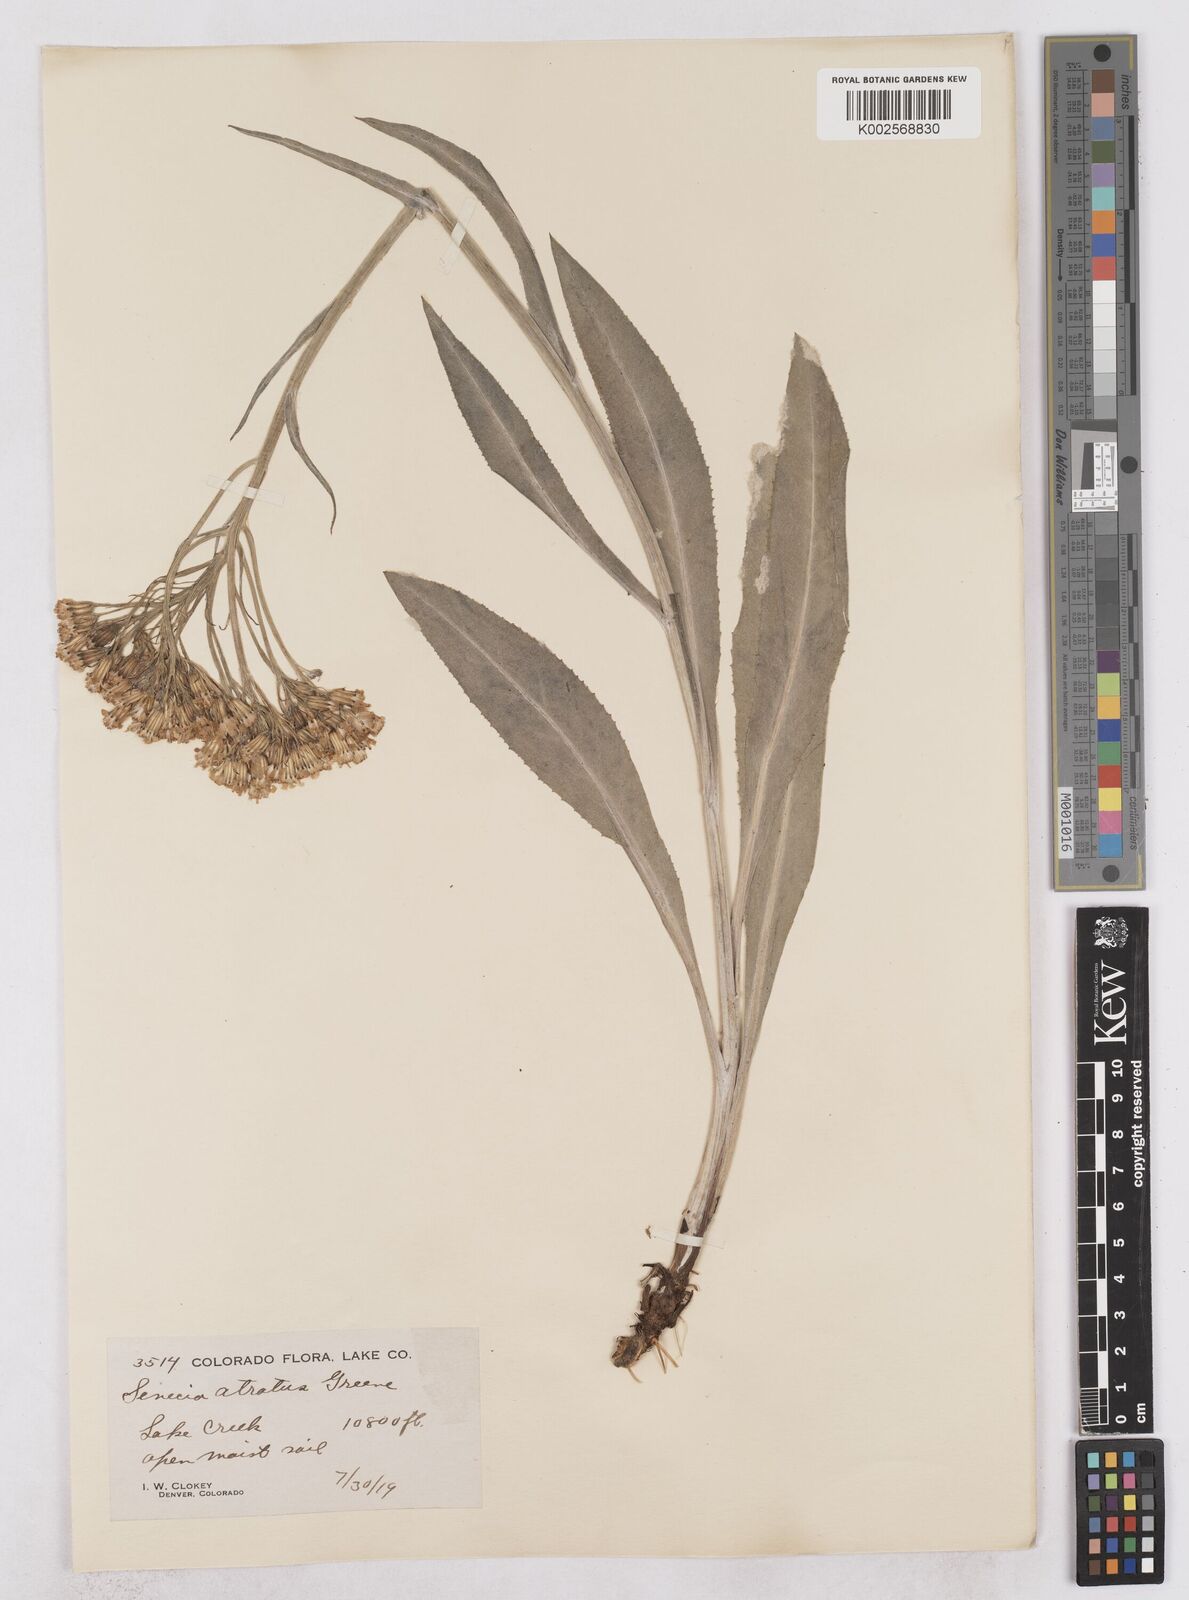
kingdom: Plantae
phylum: Tracheophyta
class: Magnoliopsida
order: Asterales
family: Asteraceae
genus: Senecio
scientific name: Senecio atratus
